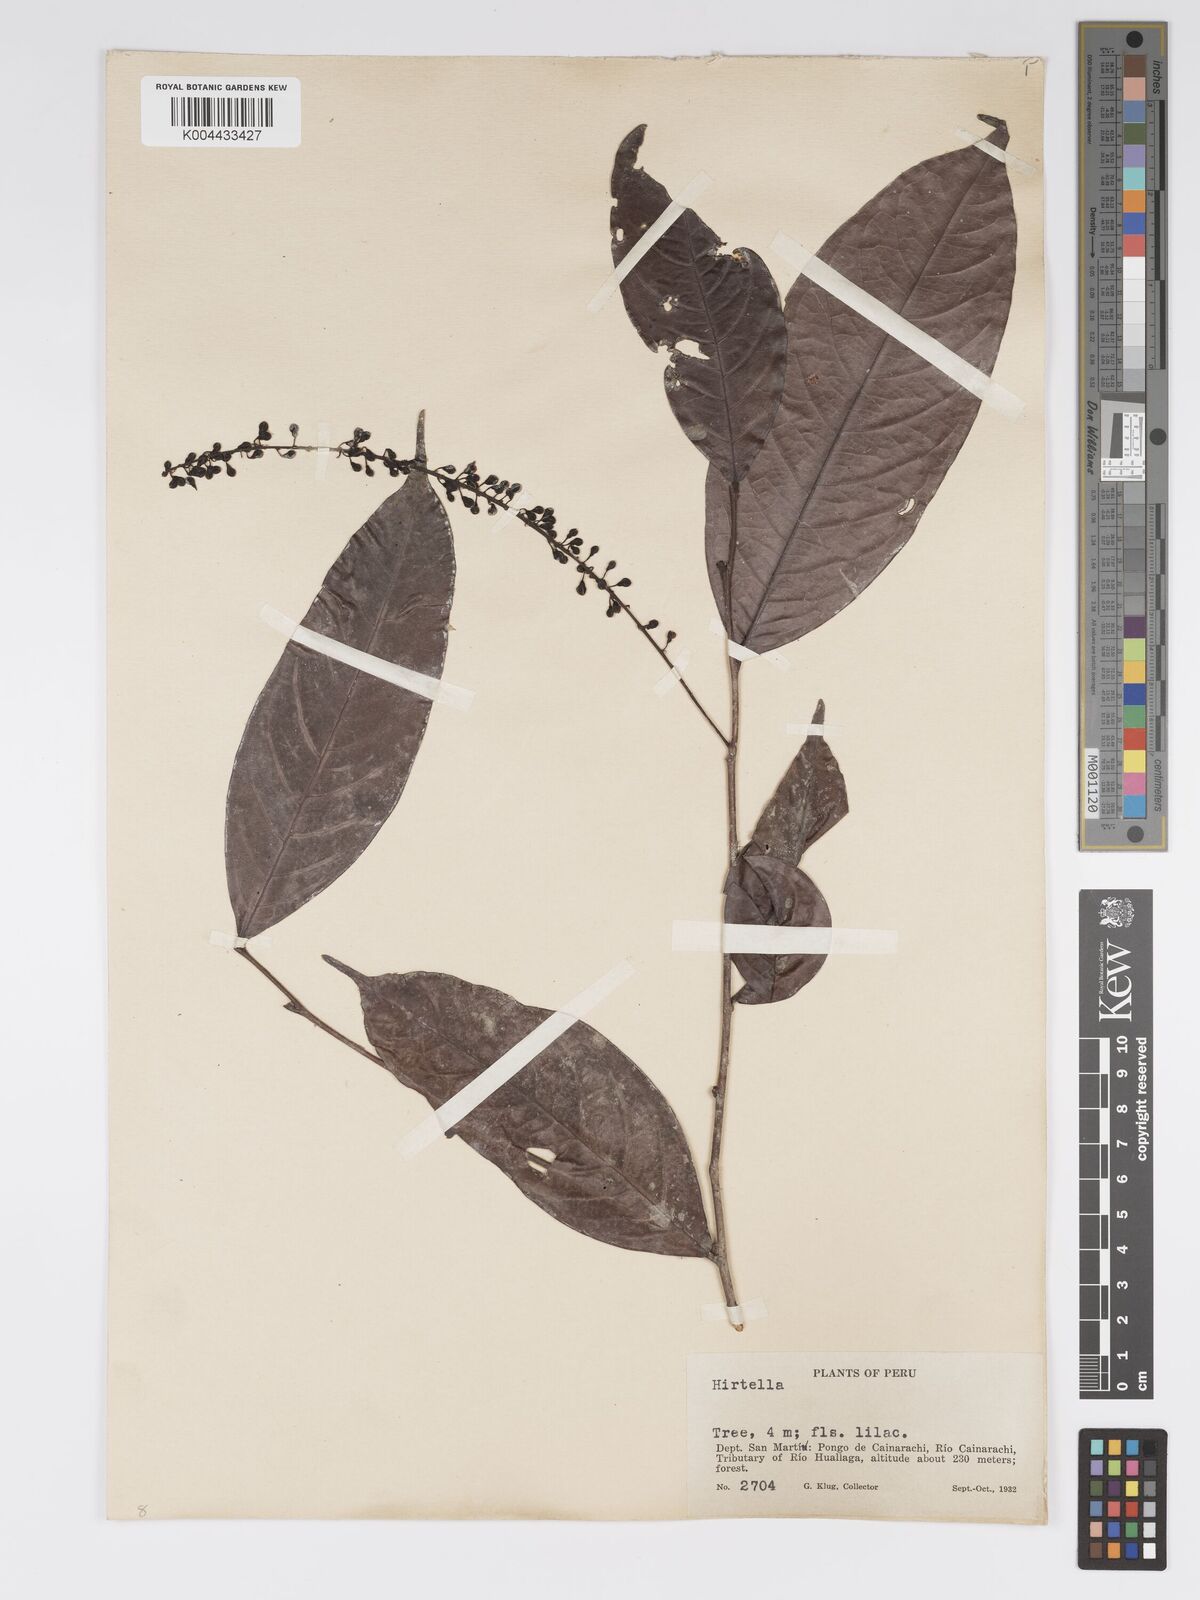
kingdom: Plantae
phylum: Tracheophyta
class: Magnoliopsida
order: Malpighiales
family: Chrysobalanaceae
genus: Hirtella
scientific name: Hirtella racemosa
